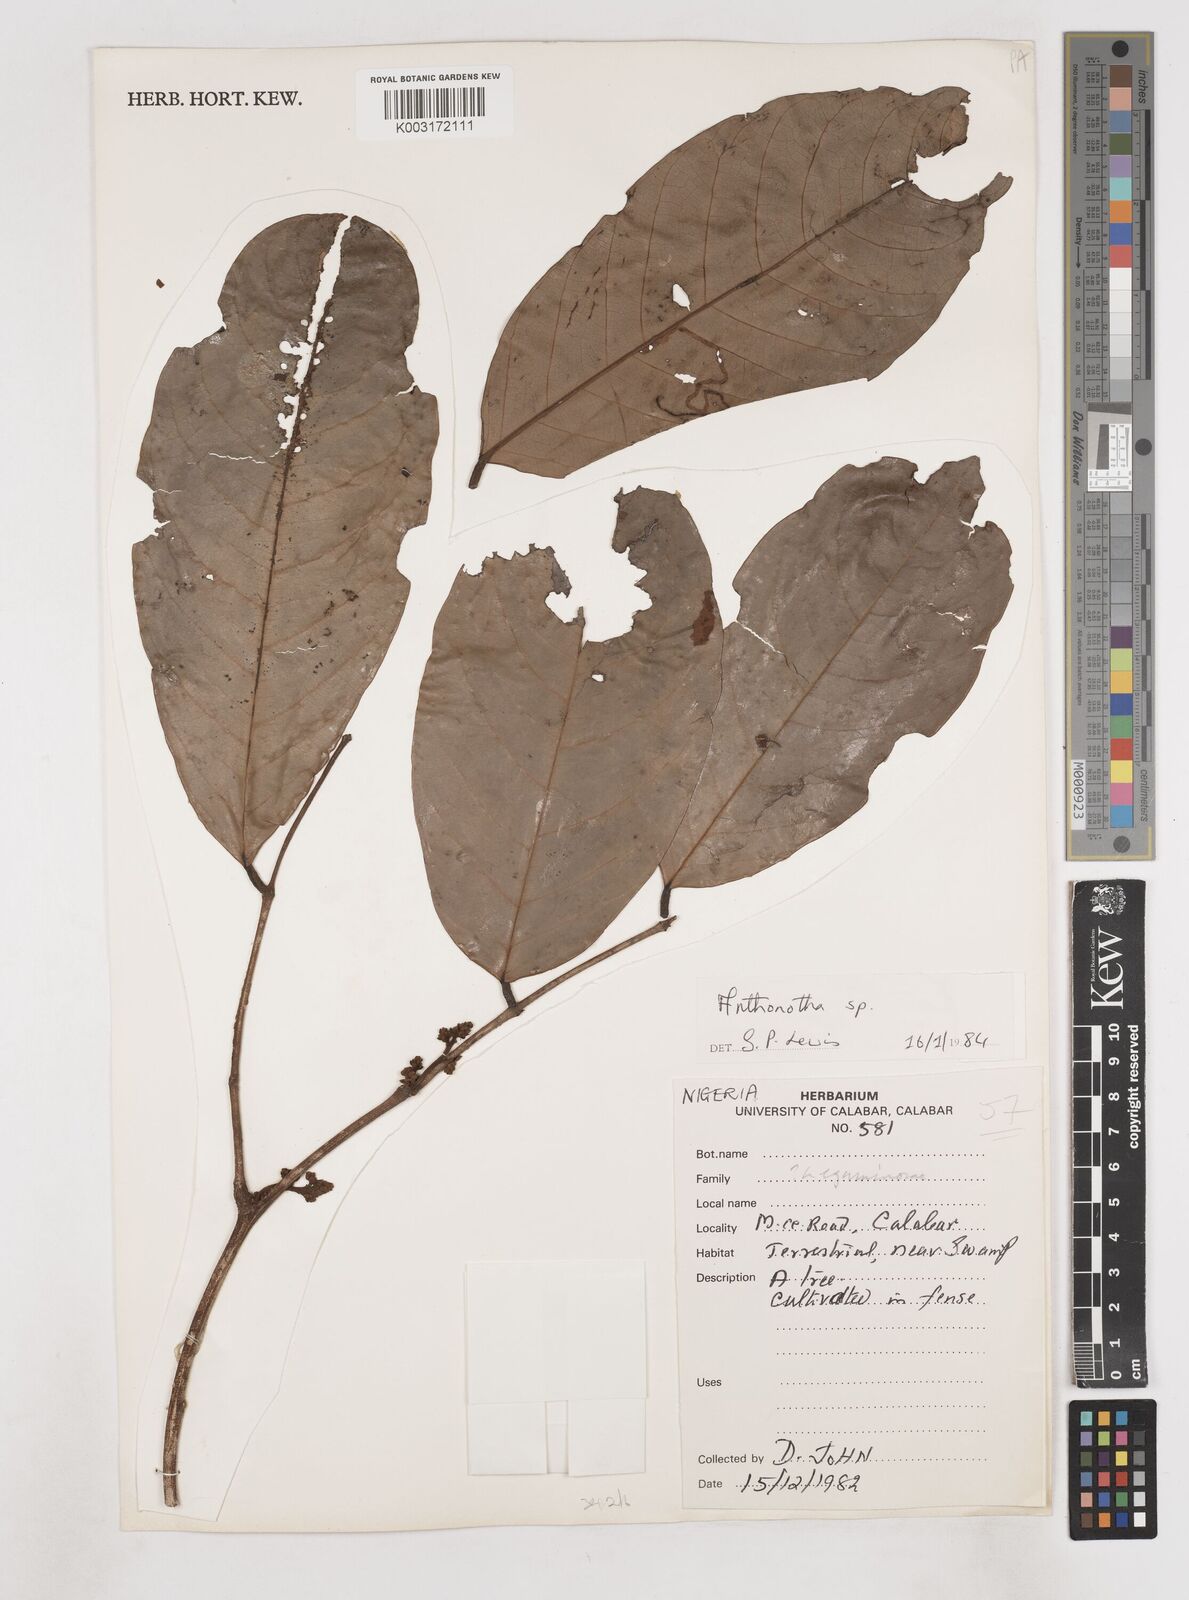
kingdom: Plantae
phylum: Tracheophyta
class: Magnoliopsida
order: Fabales
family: Fabaceae
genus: Anthonotha
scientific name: Anthonotha
